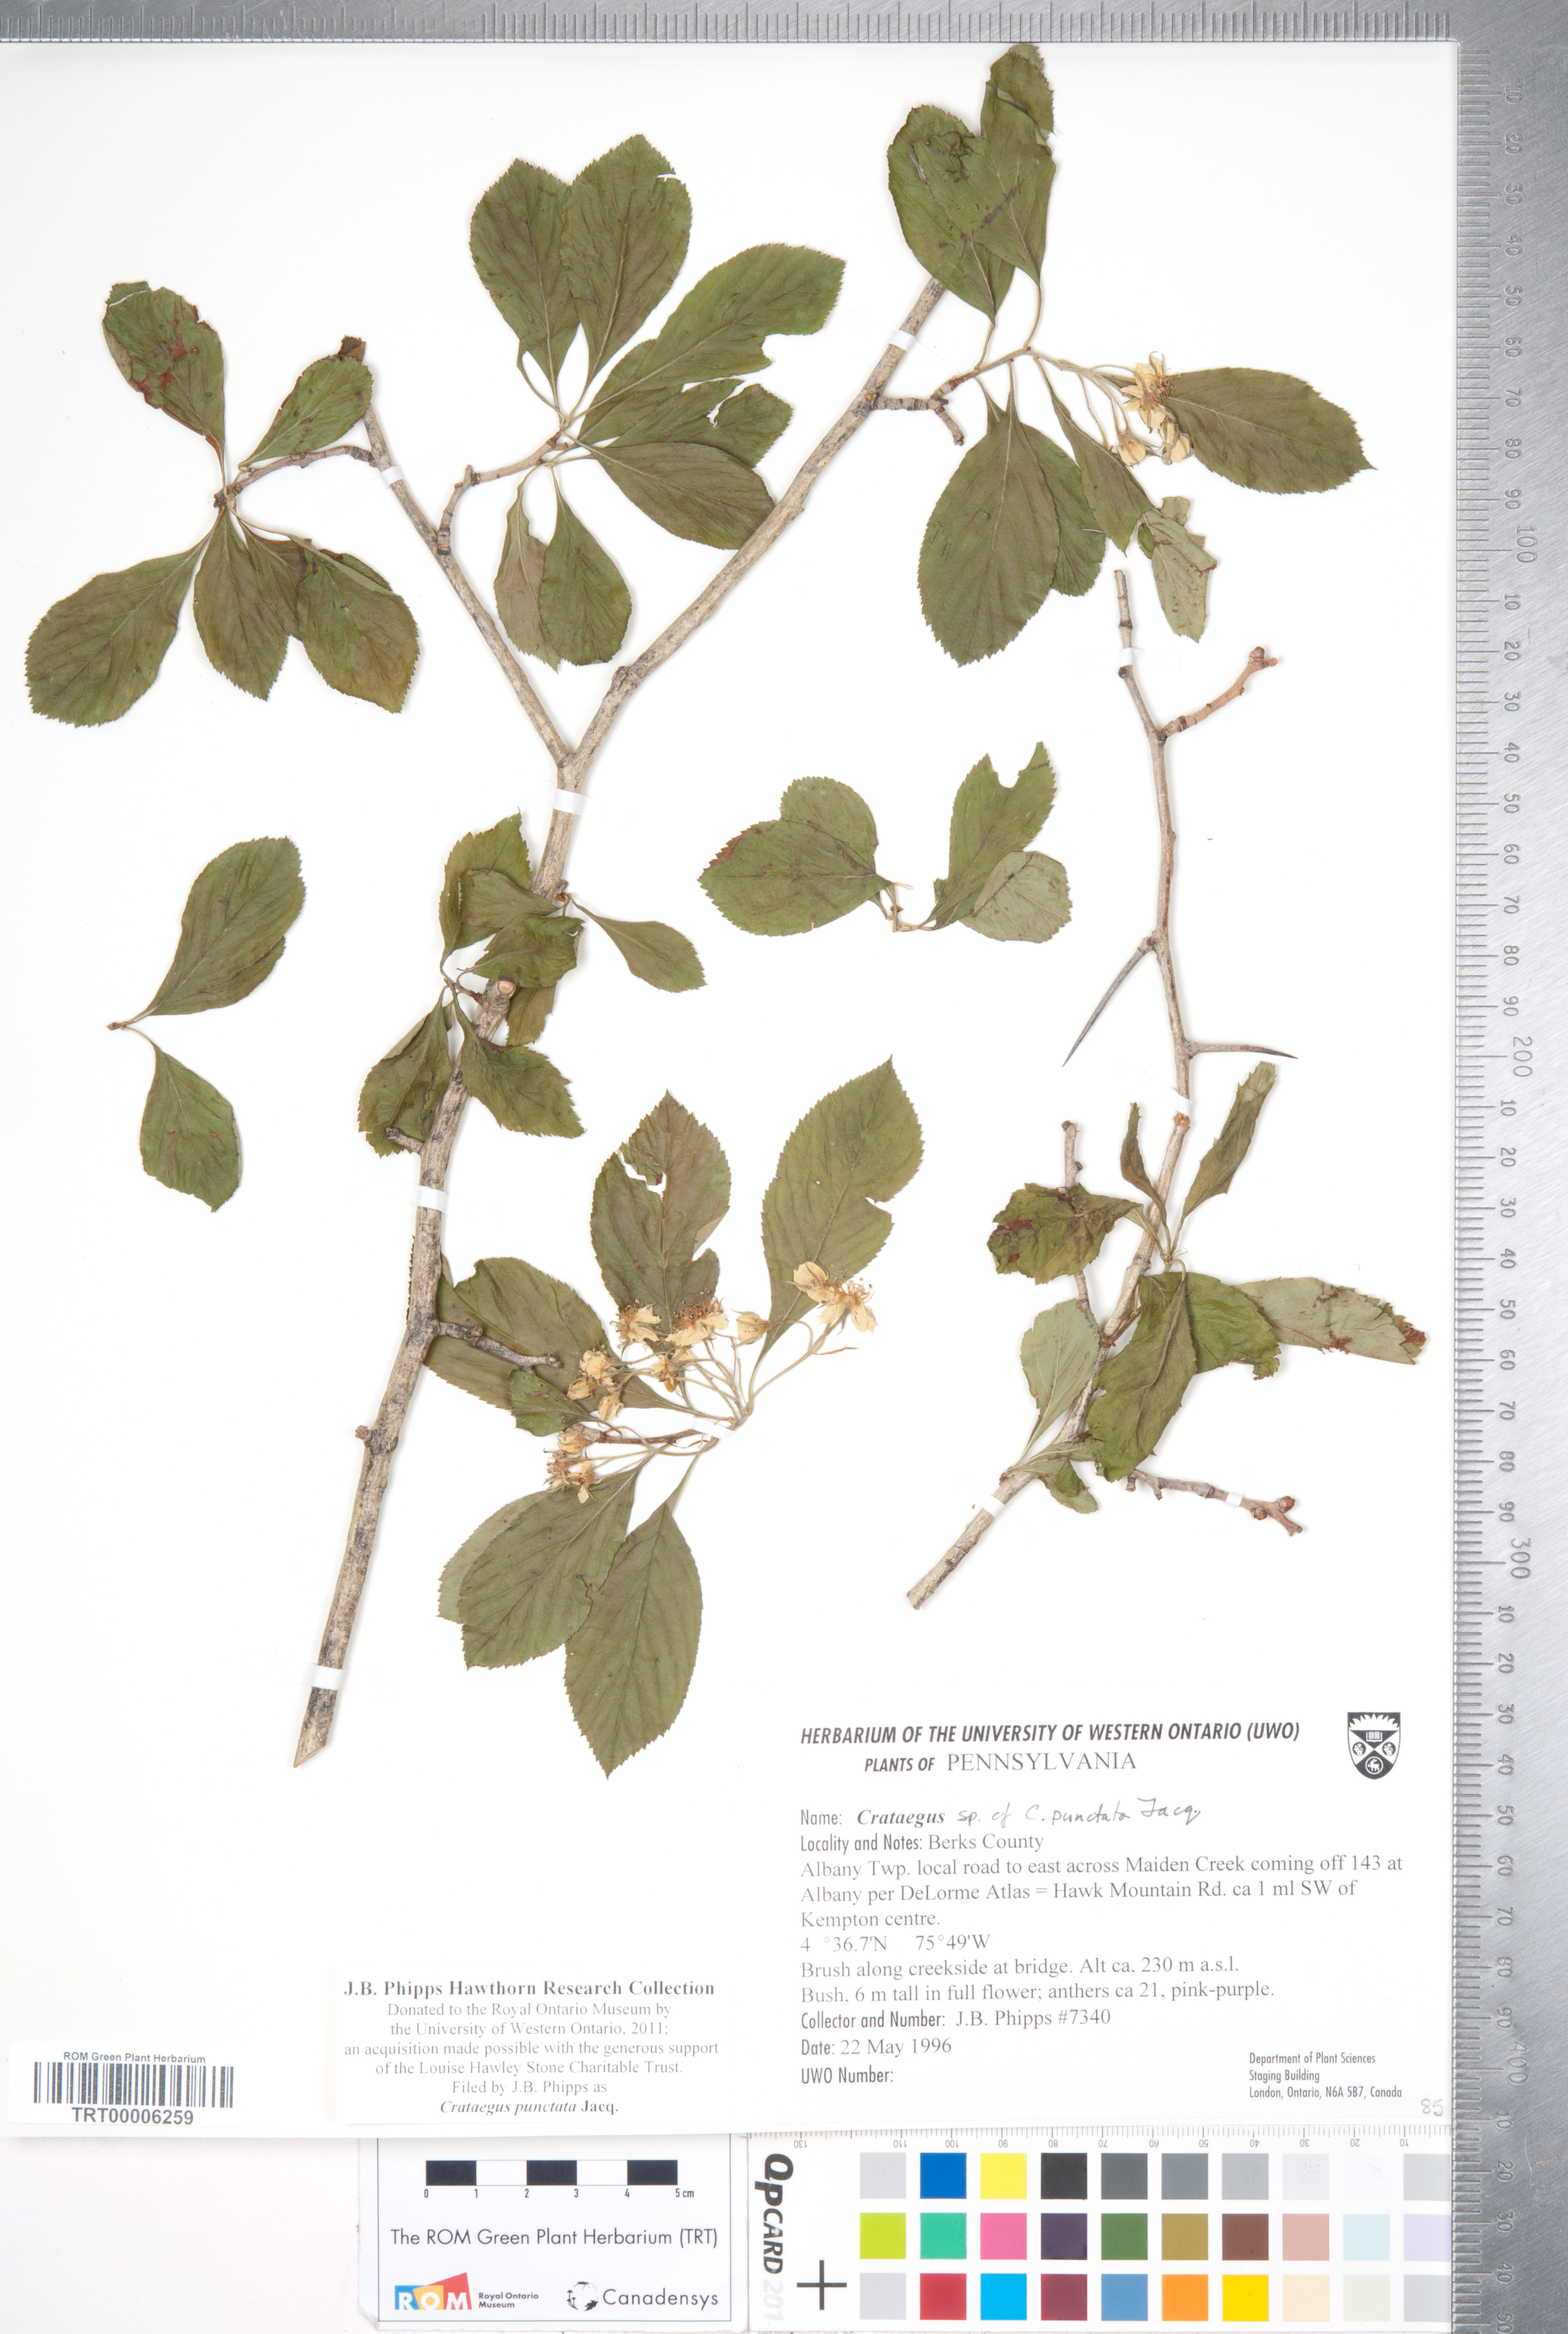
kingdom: Plantae
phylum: Tracheophyta
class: Magnoliopsida
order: Rosales
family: Rosaceae
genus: Crataegus
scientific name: Crataegus punctata
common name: Dotted hawthorn
